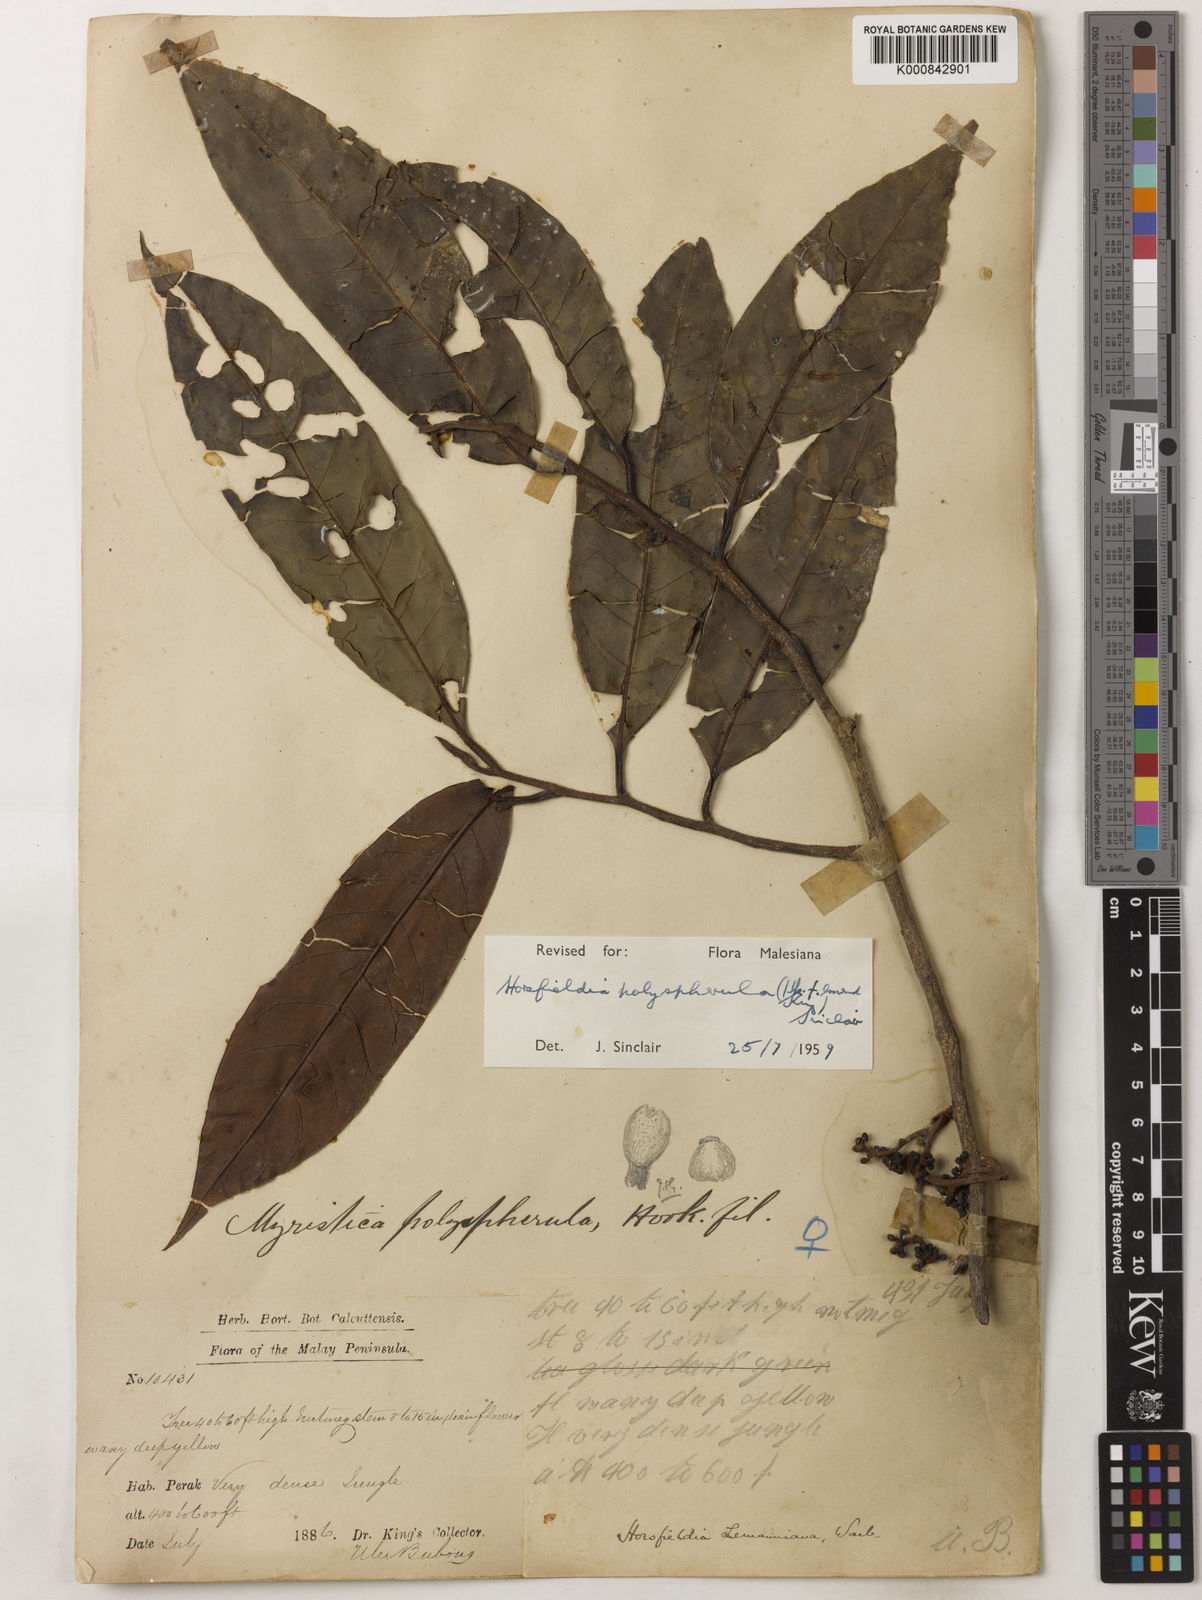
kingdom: Plantae
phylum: Tracheophyta
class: Magnoliopsida
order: Magnoliales
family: Myristicaceae
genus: Horsfieldia
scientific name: Horsfieldia
